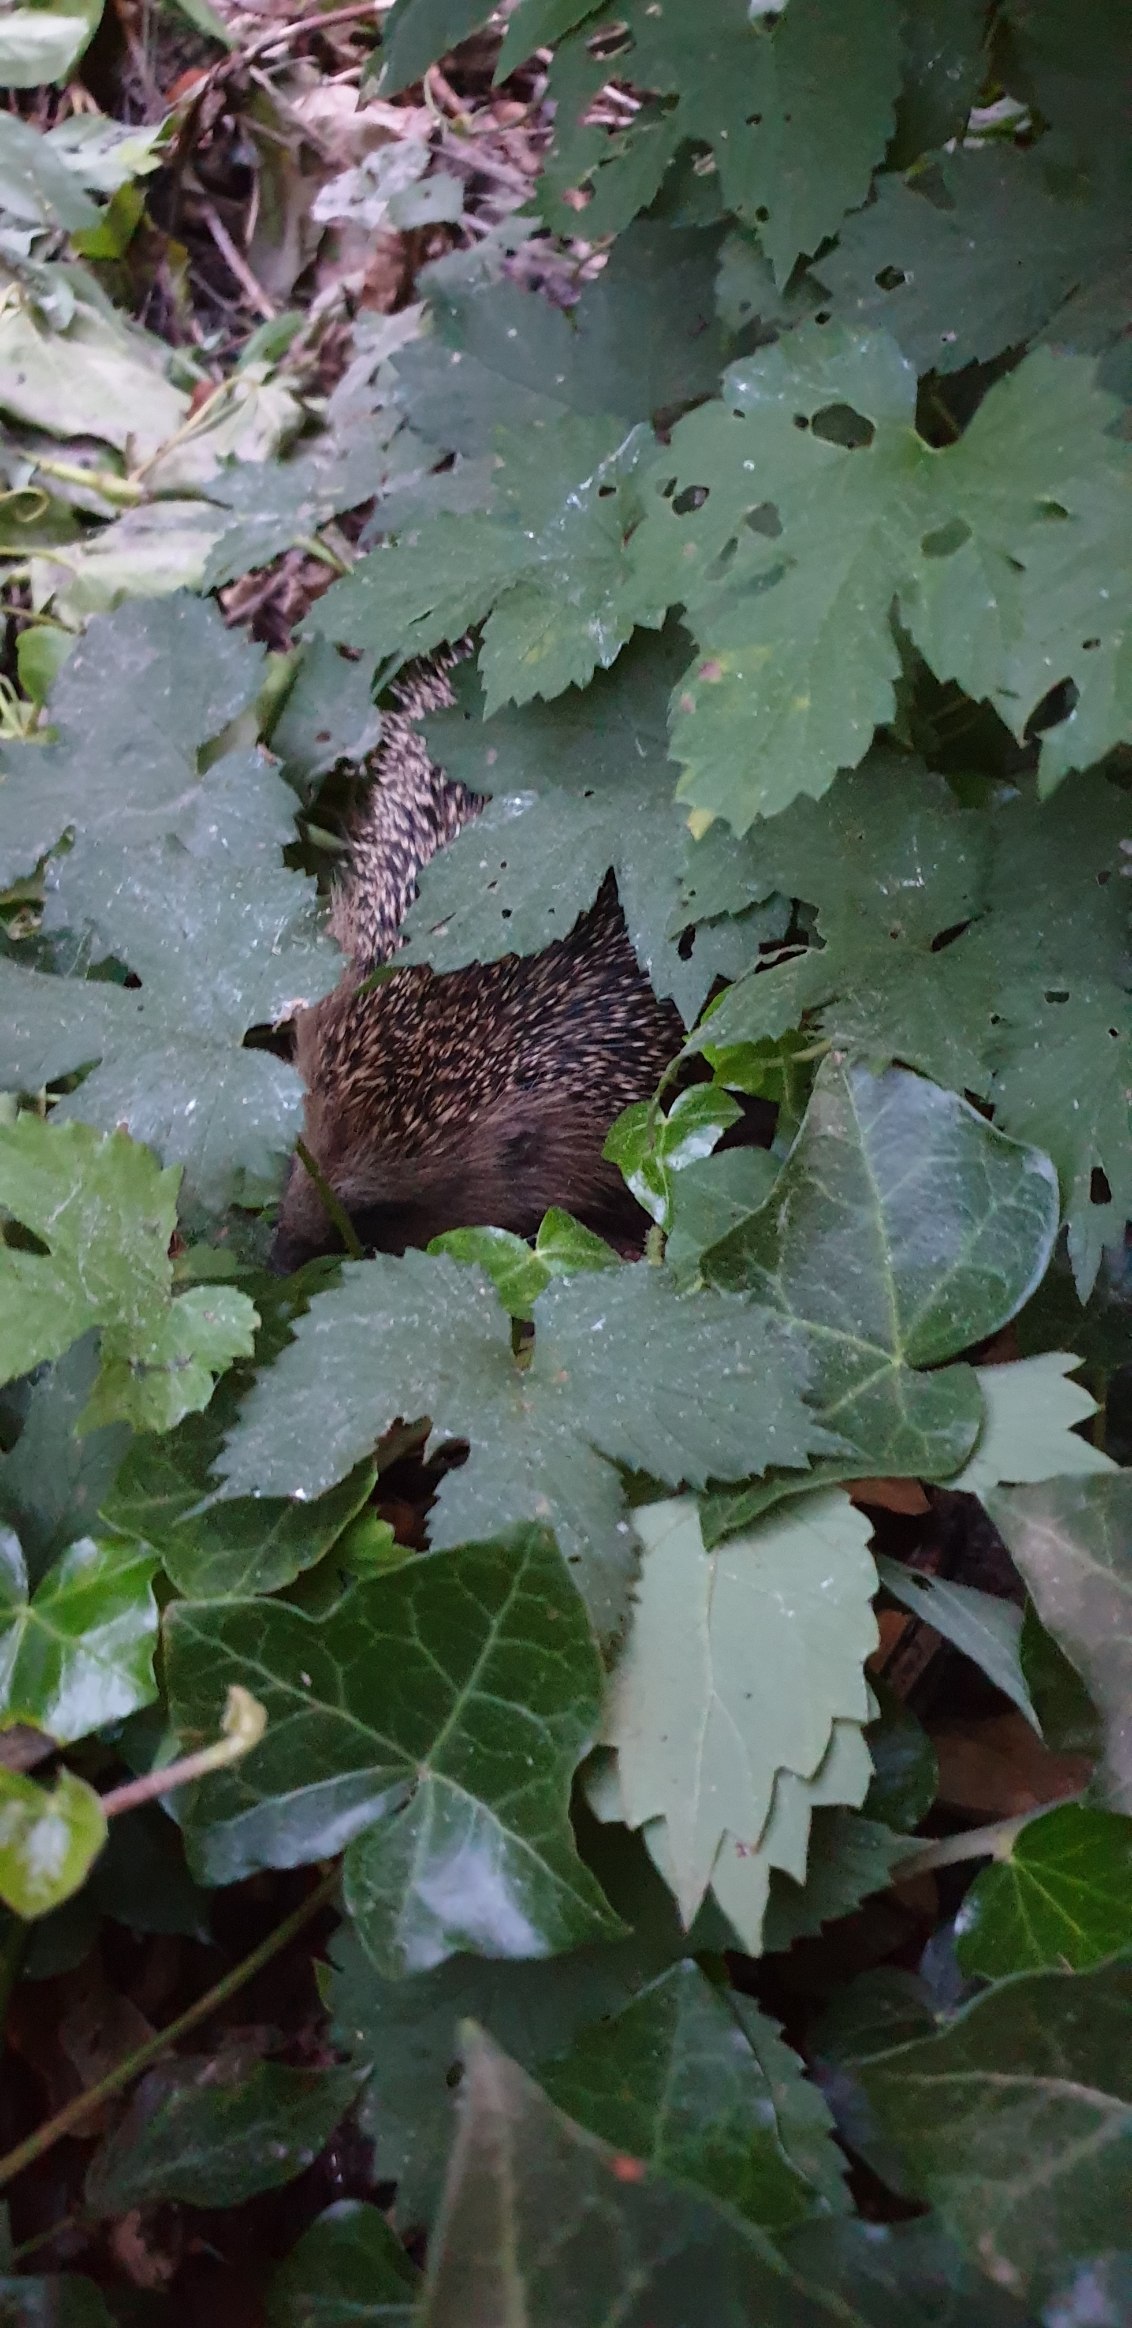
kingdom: Animalia
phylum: Chordata
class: Mammalia
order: Erinaceomorpha
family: Erinaceidae
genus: Erinaceus
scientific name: Erinaceus europaeus
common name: Pindsvin
